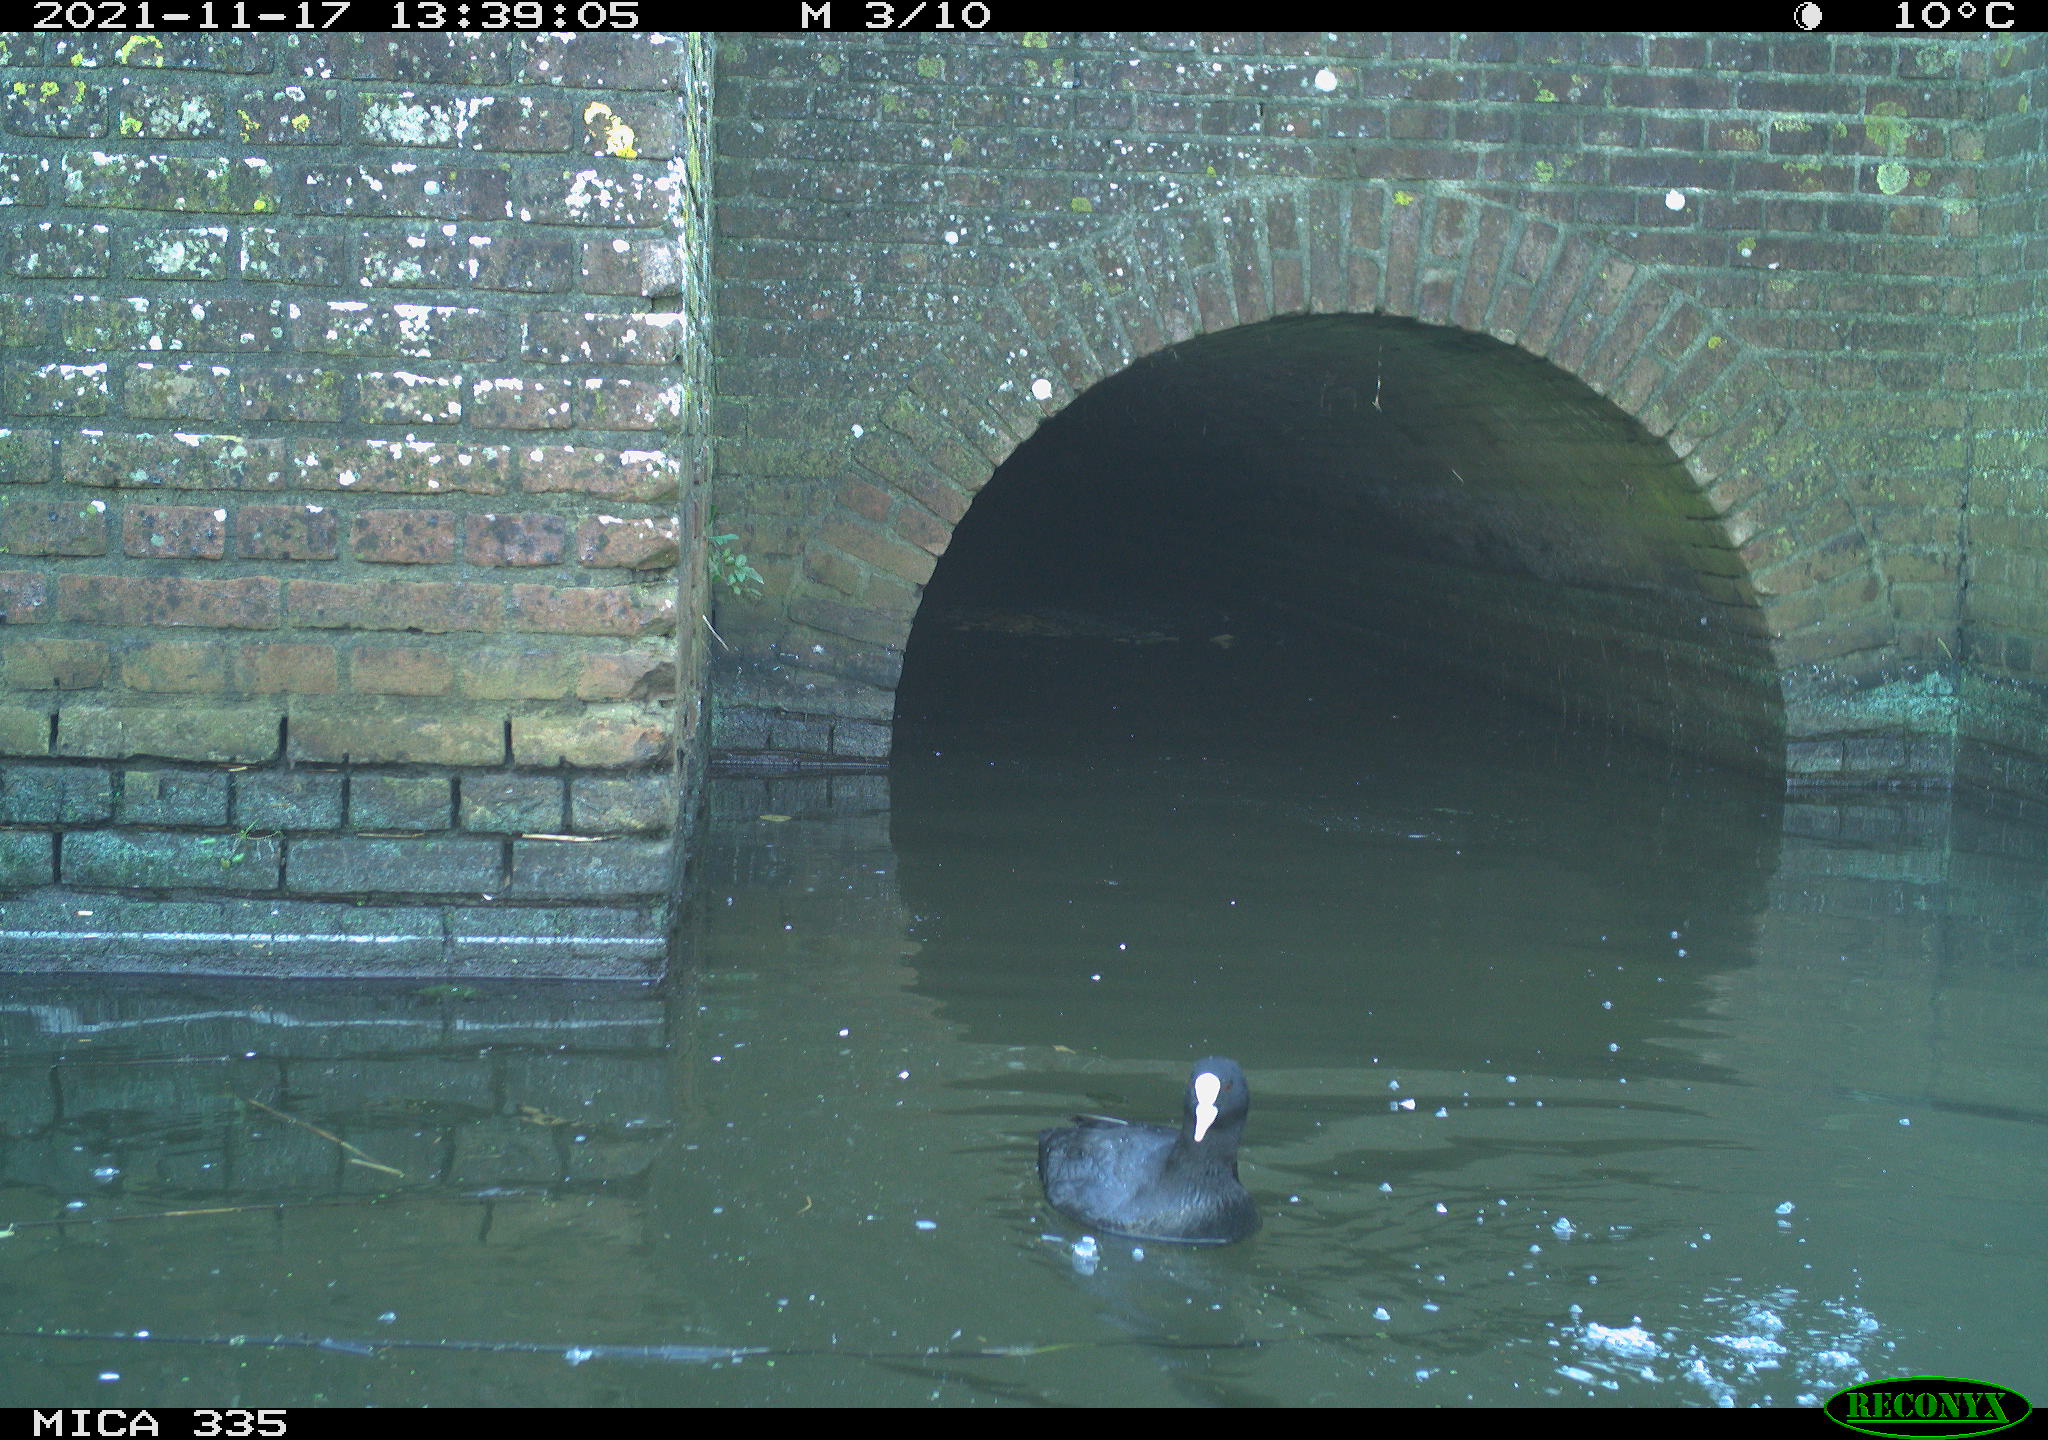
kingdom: Animalia
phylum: Chordata
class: Aves
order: Gruiformes
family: Rallidae
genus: Fulica
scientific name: Fulica atra
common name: Eurasian coot
